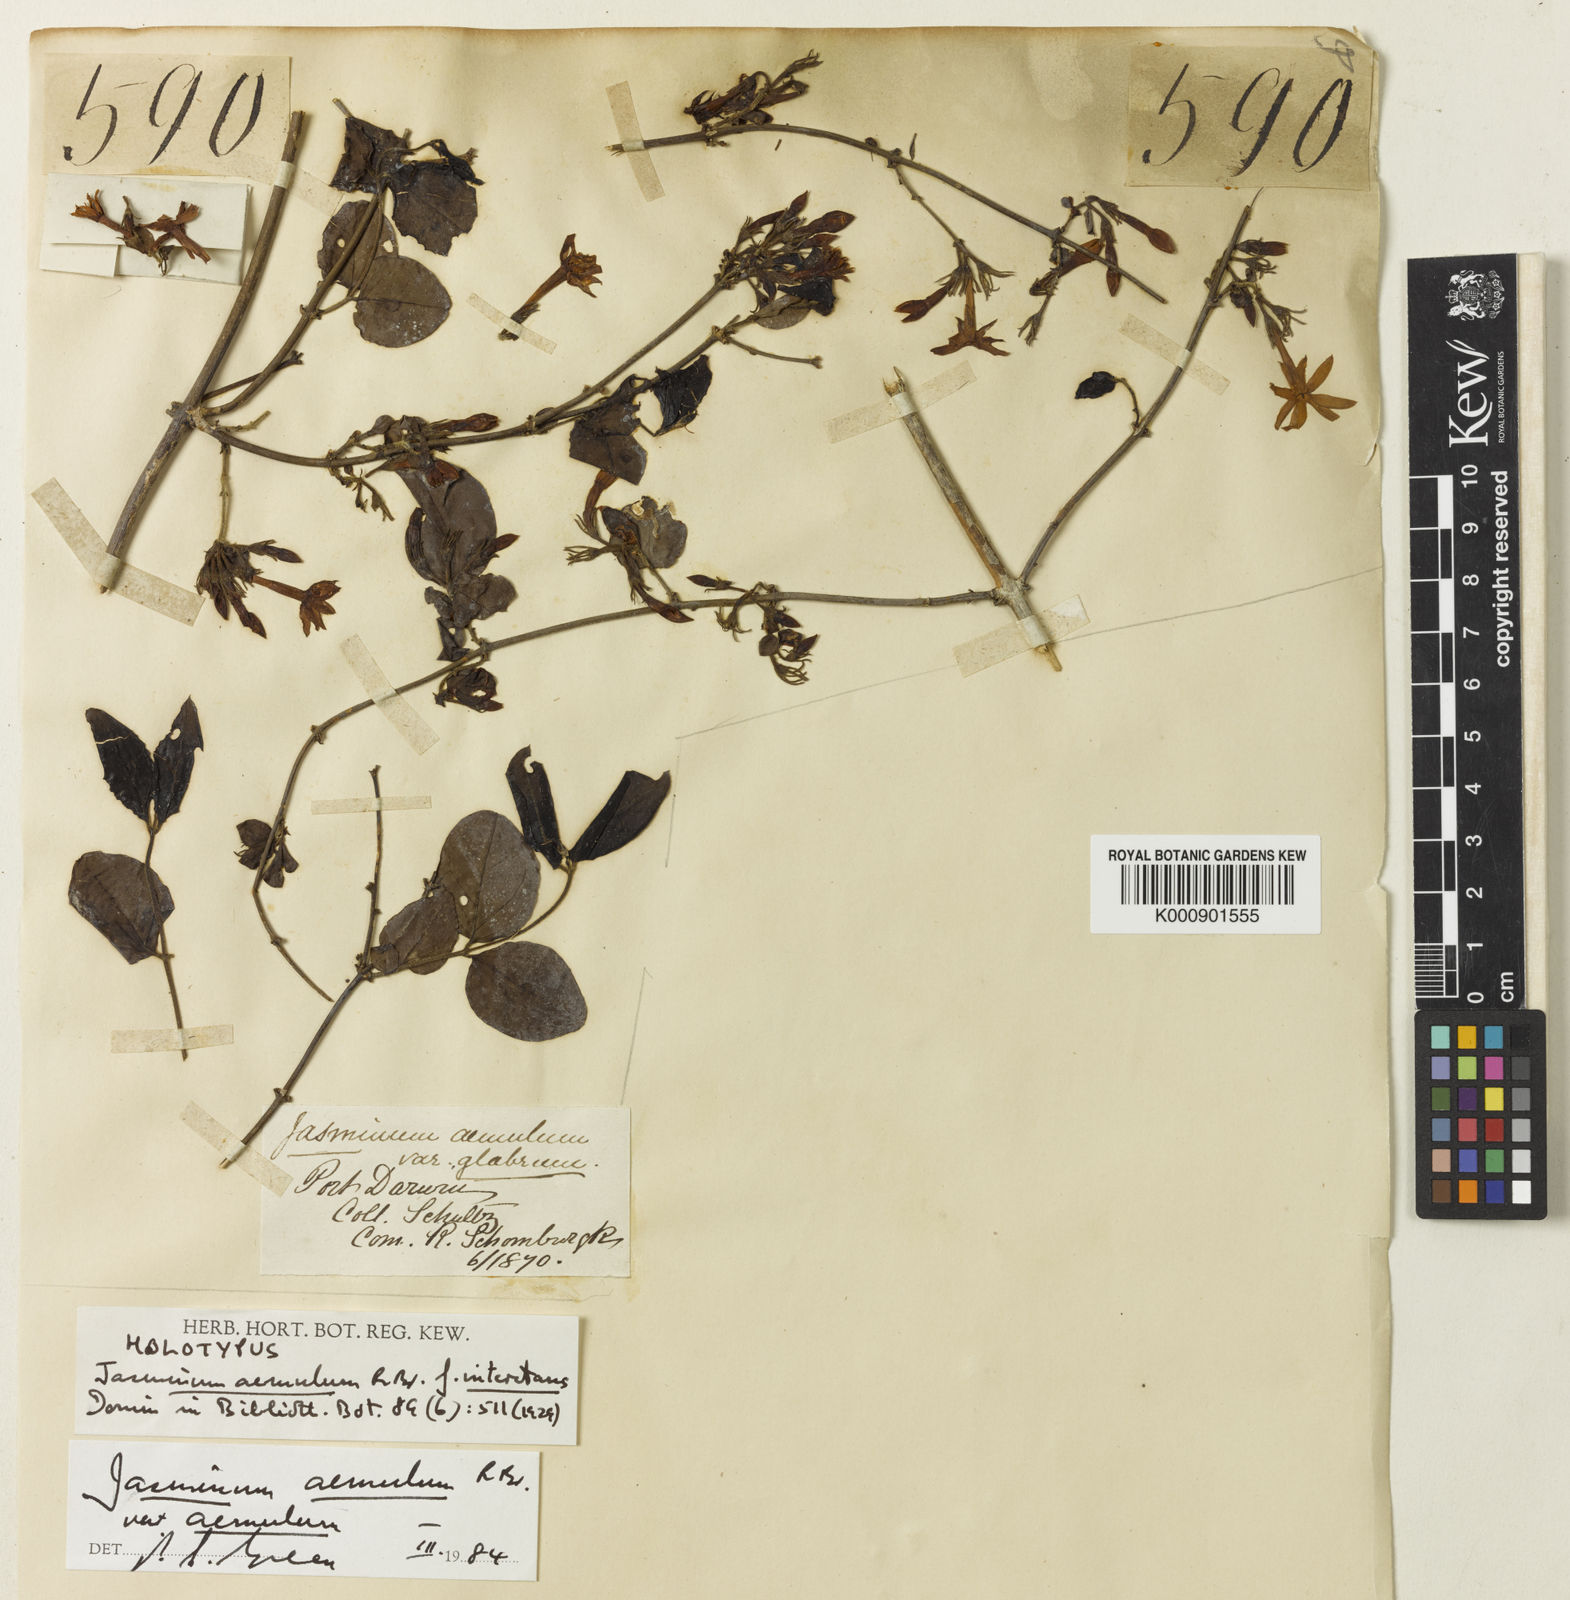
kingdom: Plantae
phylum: Tracheophyta
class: Magnoliopsida
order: Lamiales
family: Oleaceae
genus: Jasminum
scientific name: Jasminum
